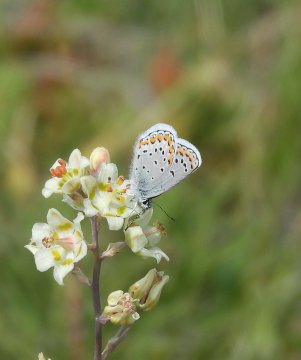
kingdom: Animalia
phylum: Arthropoda
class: Insecta
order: Lepidoptera
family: Lycaenidae
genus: Lycaeides
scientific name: Lycaeides melissa
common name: Melissa Blue
